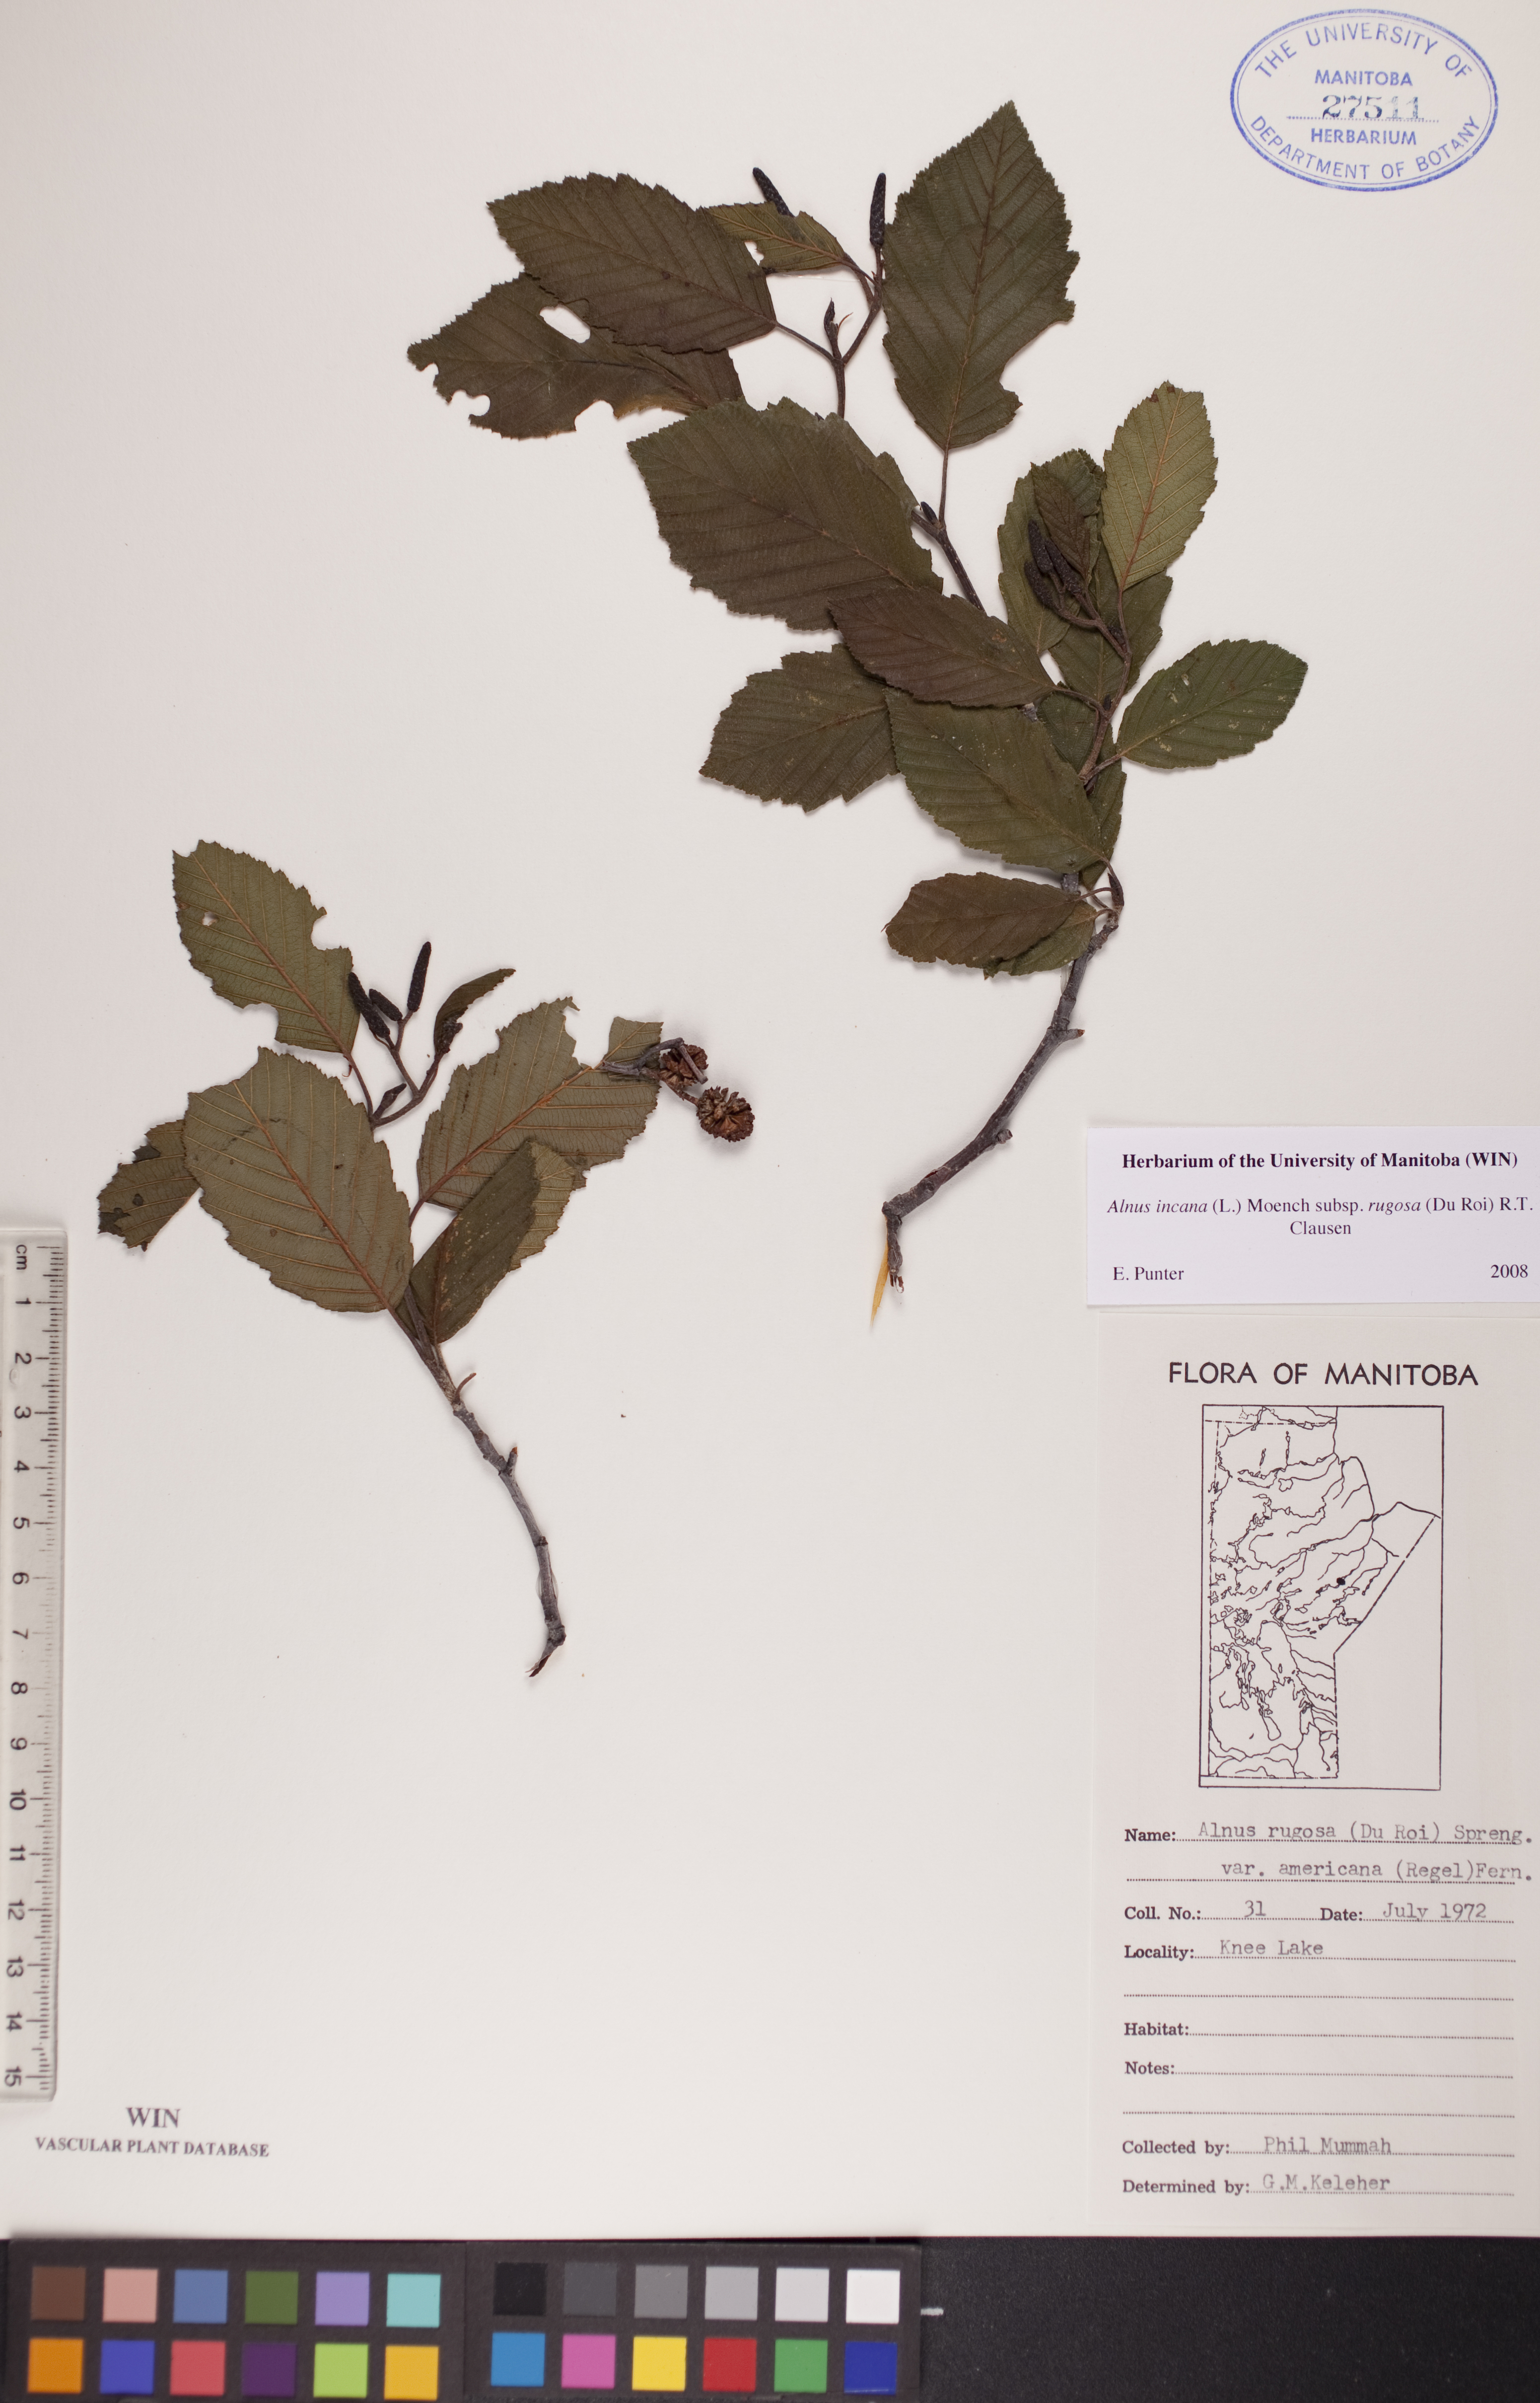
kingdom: Plantae
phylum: Tracheophyta
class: Magnoliopsida
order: Fagales
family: Betulaceae
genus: Alnus
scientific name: Alnus incana
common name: Grey alder
